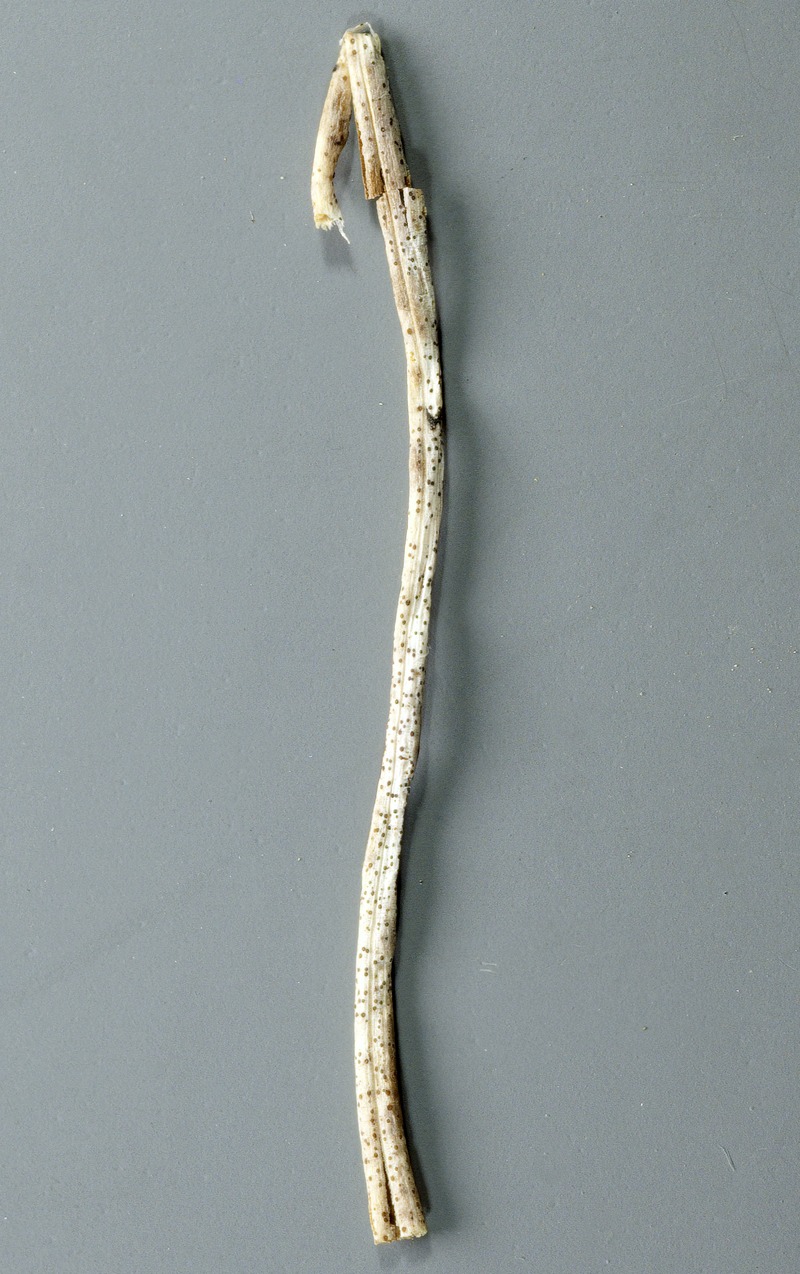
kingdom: Fungi
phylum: Ascomycota
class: Leotiomycetes
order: Helotiales
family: Dermateaceae
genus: Hysteronaevia
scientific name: Hysteronaevia clavulifera
